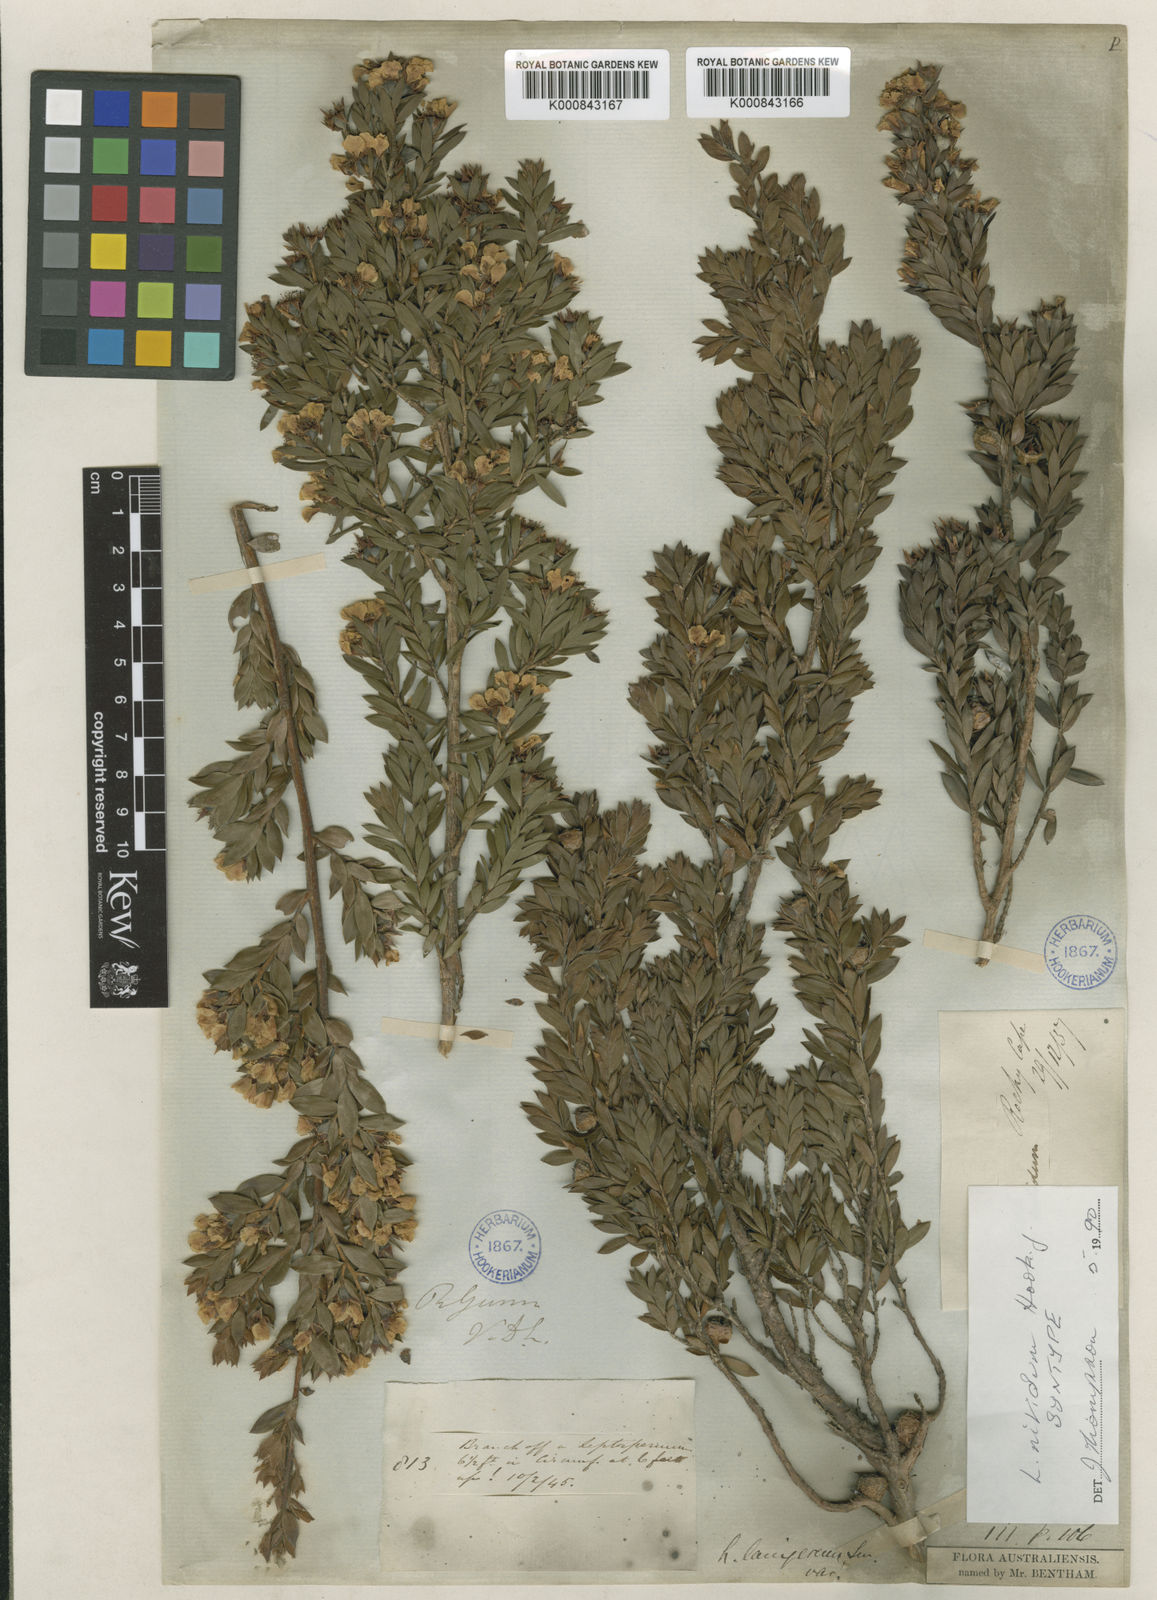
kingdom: Plantae
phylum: Tracheophyta
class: Magnoliopsida
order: Myrtales
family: Myrtaceae
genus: Leptospermum
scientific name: Leptospermum nitidum
